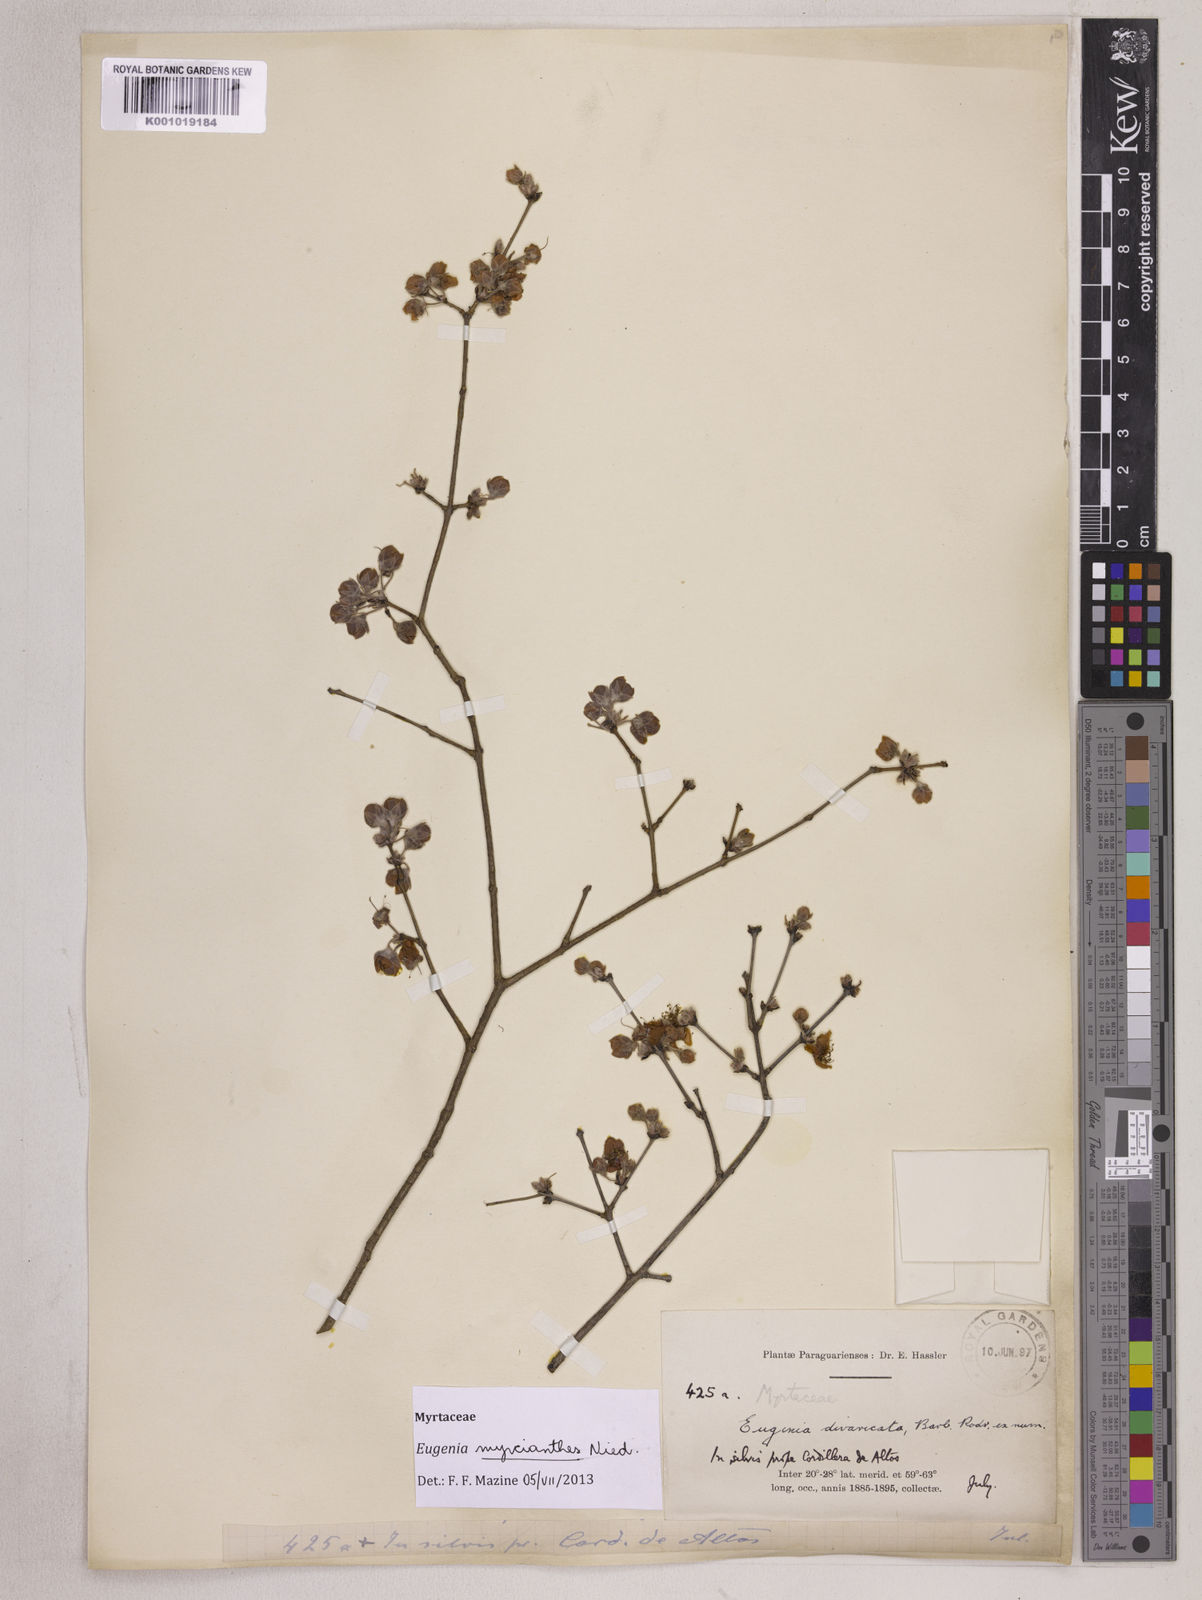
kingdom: Plantae
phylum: Tracheophyta
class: Magnoliopsida
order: Myrtales
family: Myrtaceae
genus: Eugenia
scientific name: Eugenia myrcianthes
